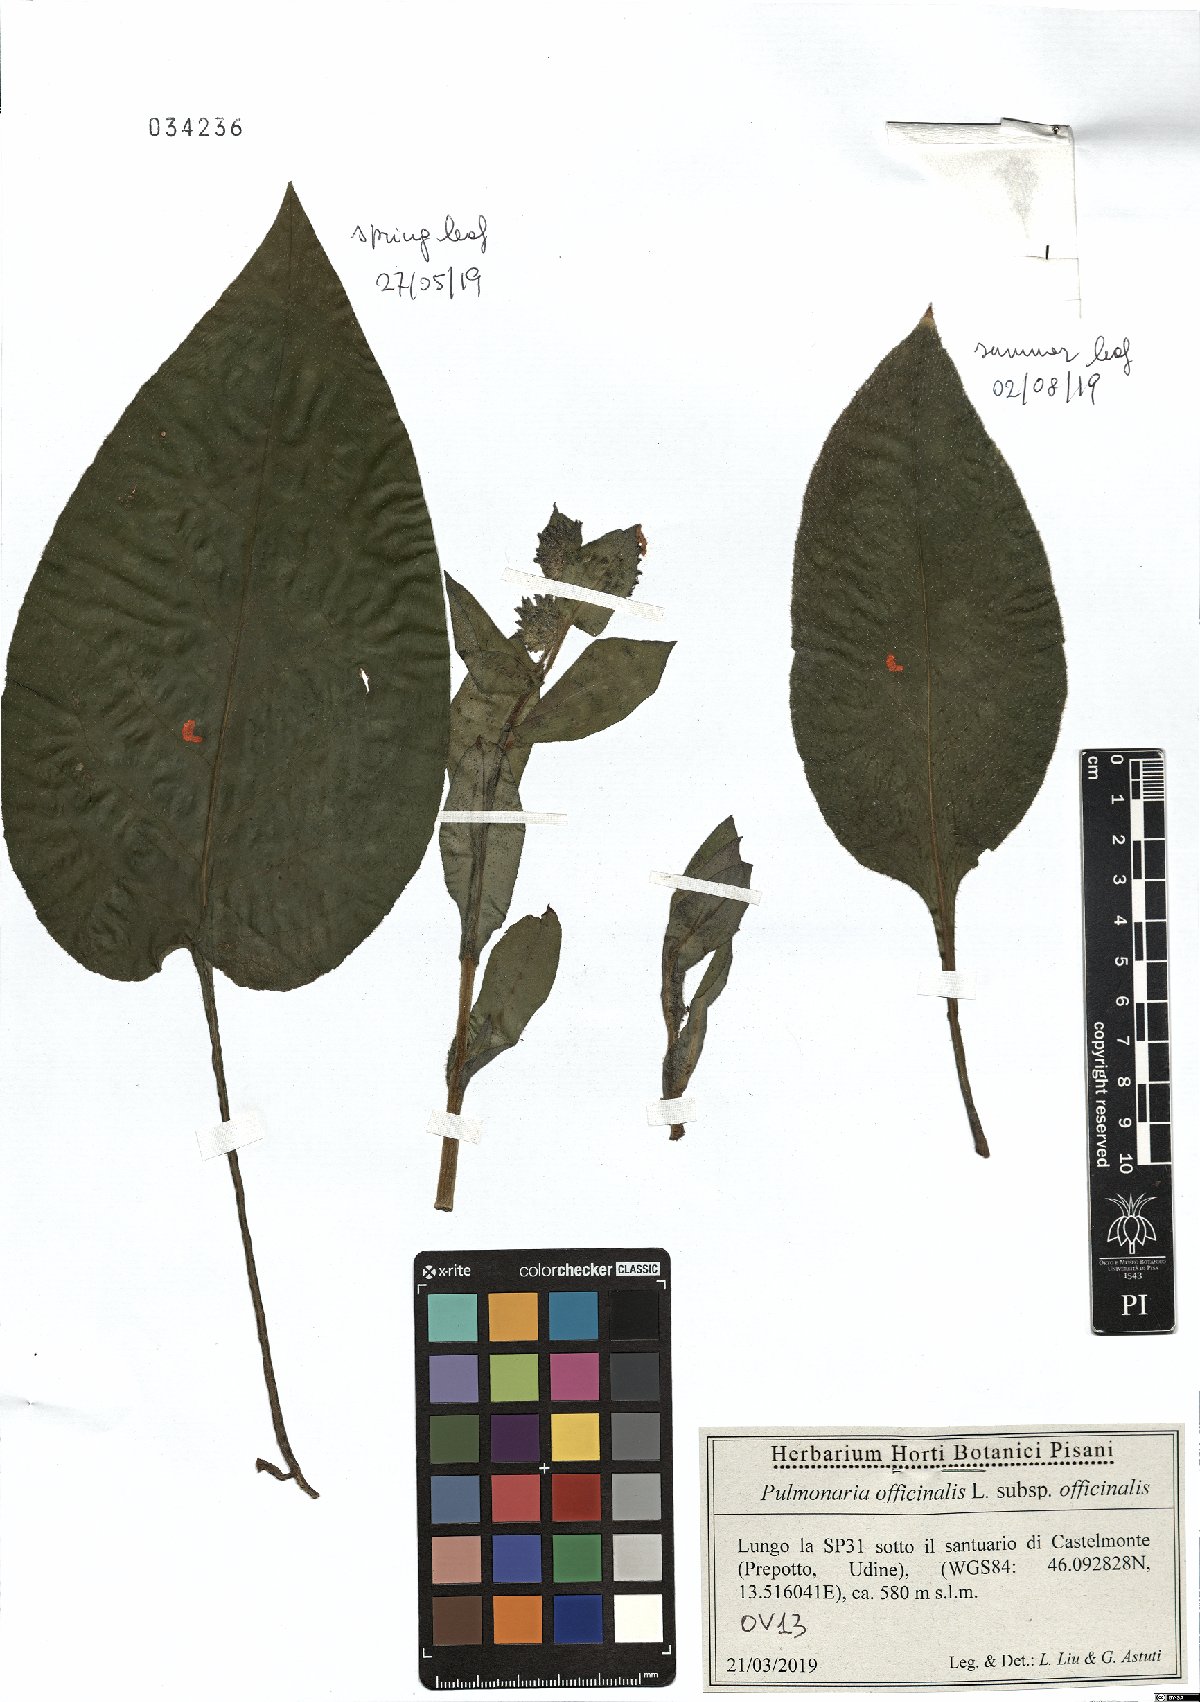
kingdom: Plantae
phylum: Tracheophyta
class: Magnoliopsida
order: Boraginales
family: Boraginaceae
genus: Pulmonaria
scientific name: Pulmonaria officinalis
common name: Lungwort
